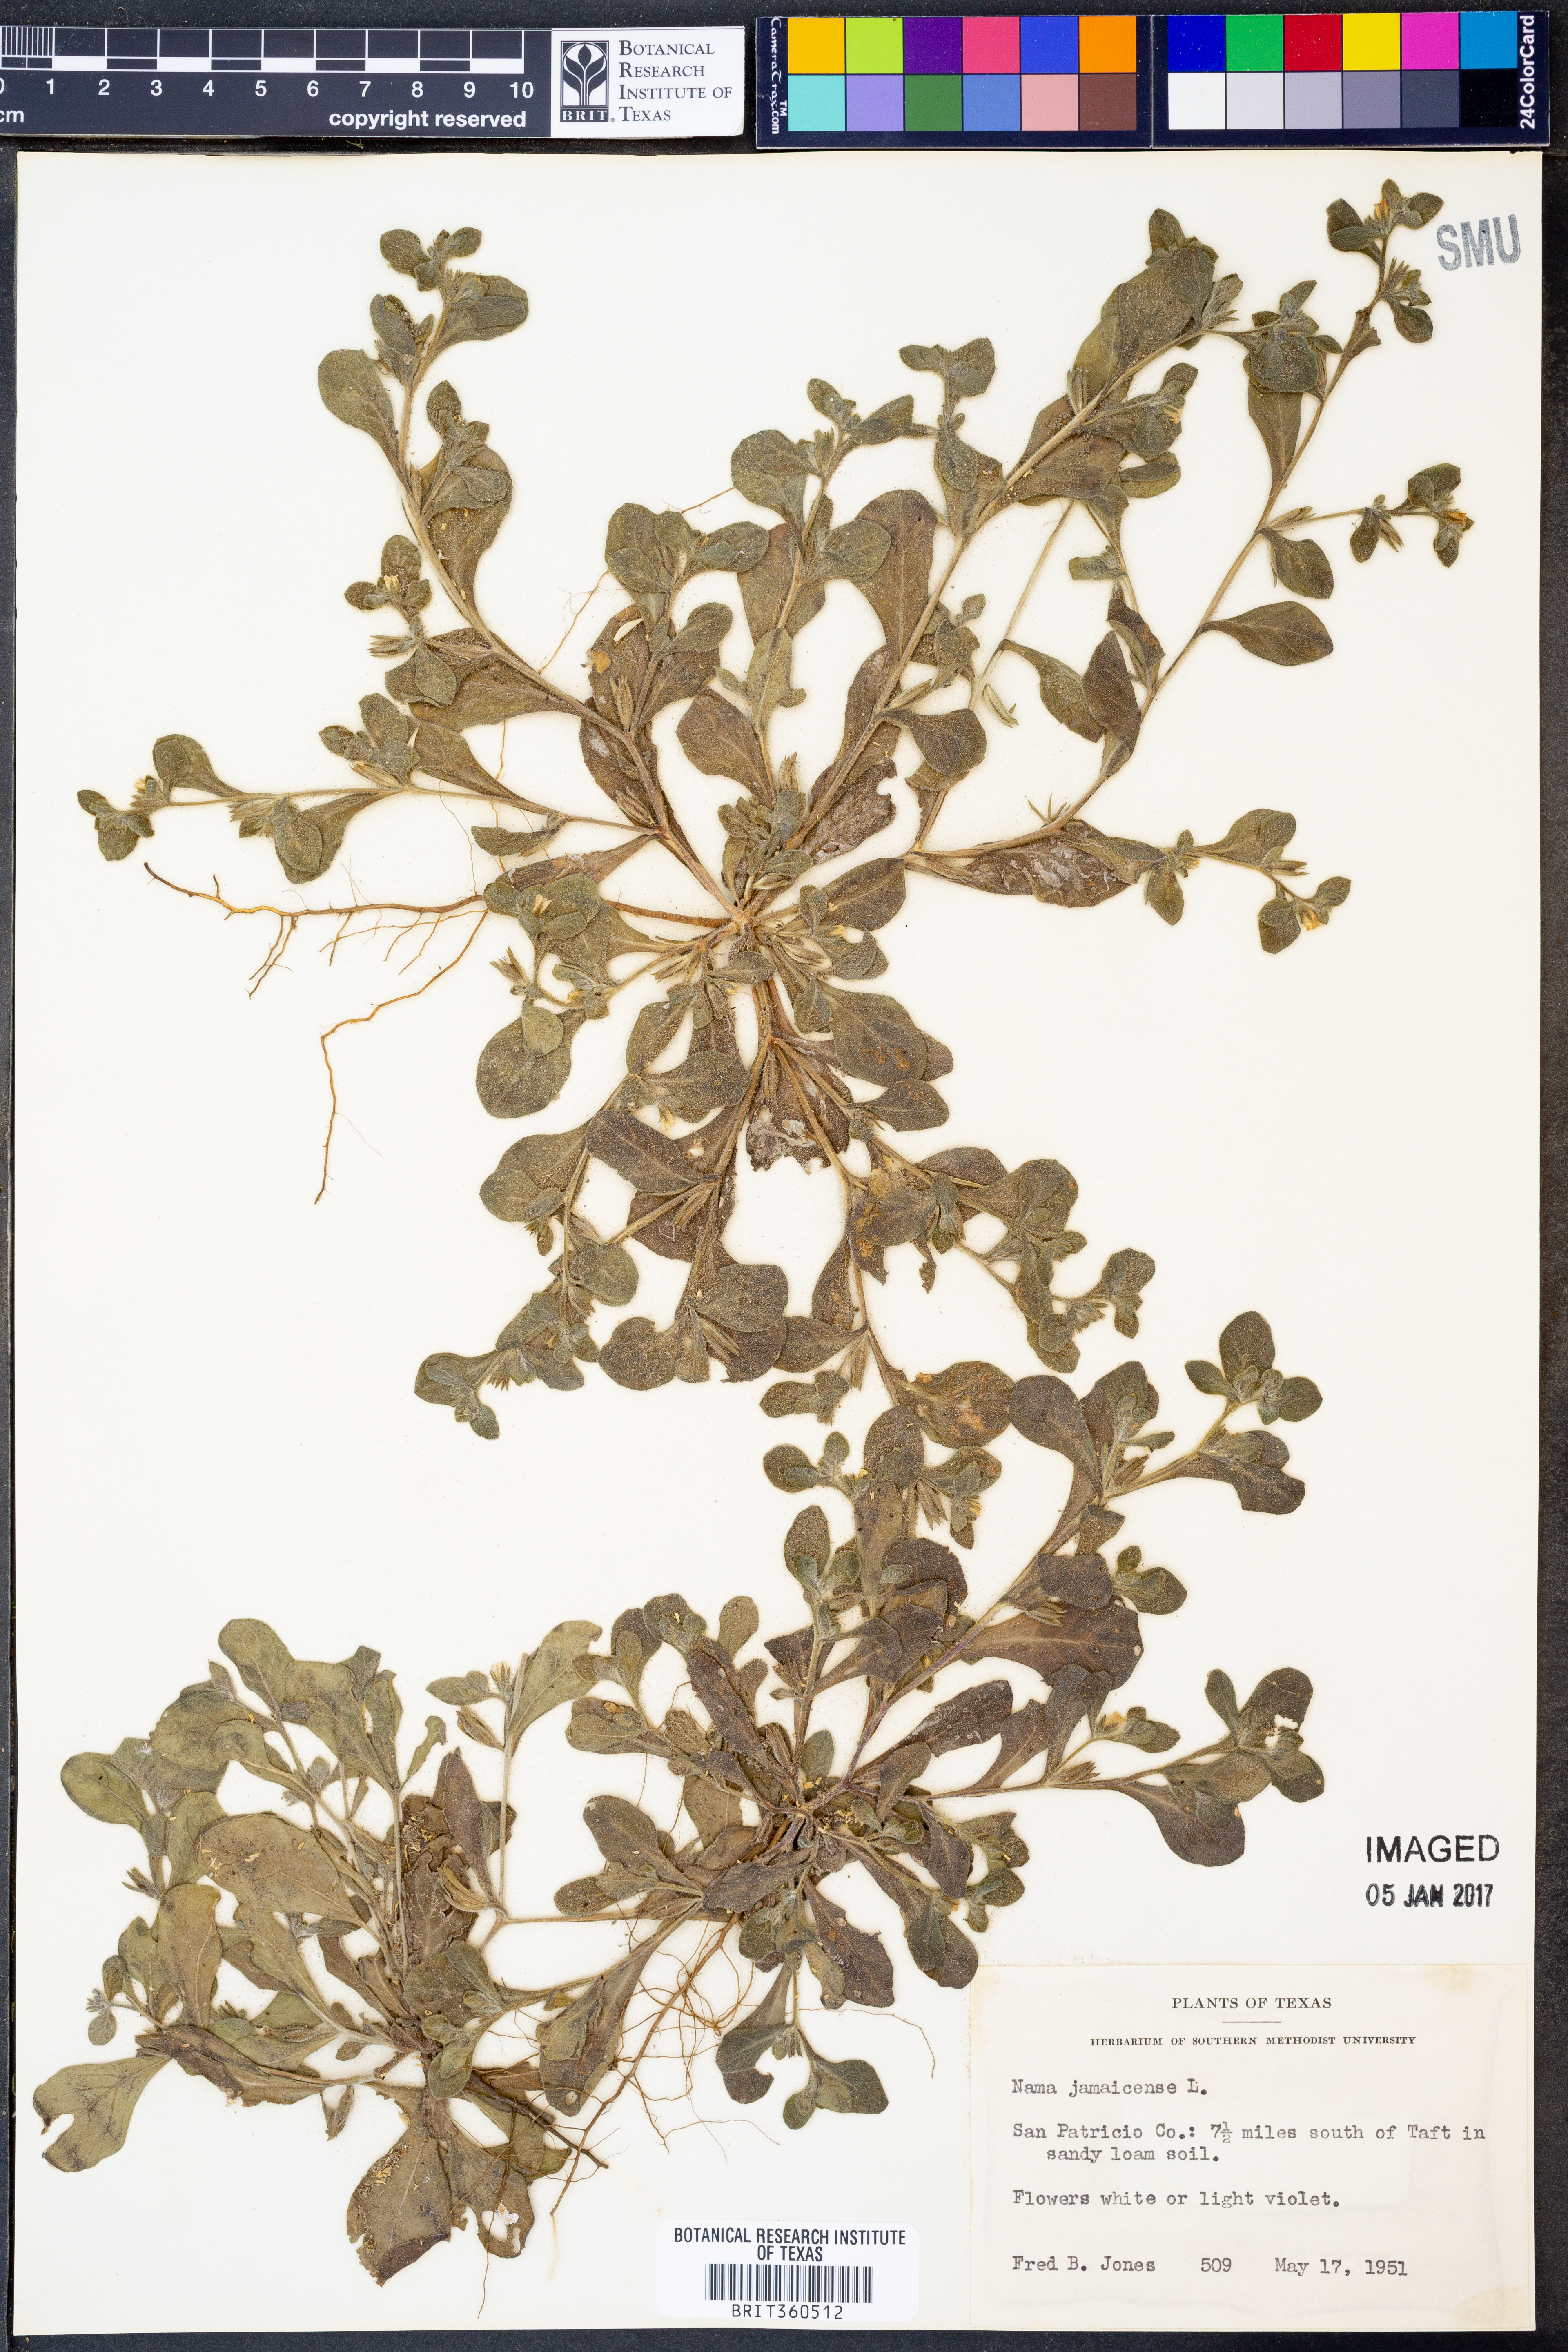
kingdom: Plantae
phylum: Tracheophyta
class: Magnoliopsida
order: Boraginales
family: Namaceae
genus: Nama
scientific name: Nama jamaicense
